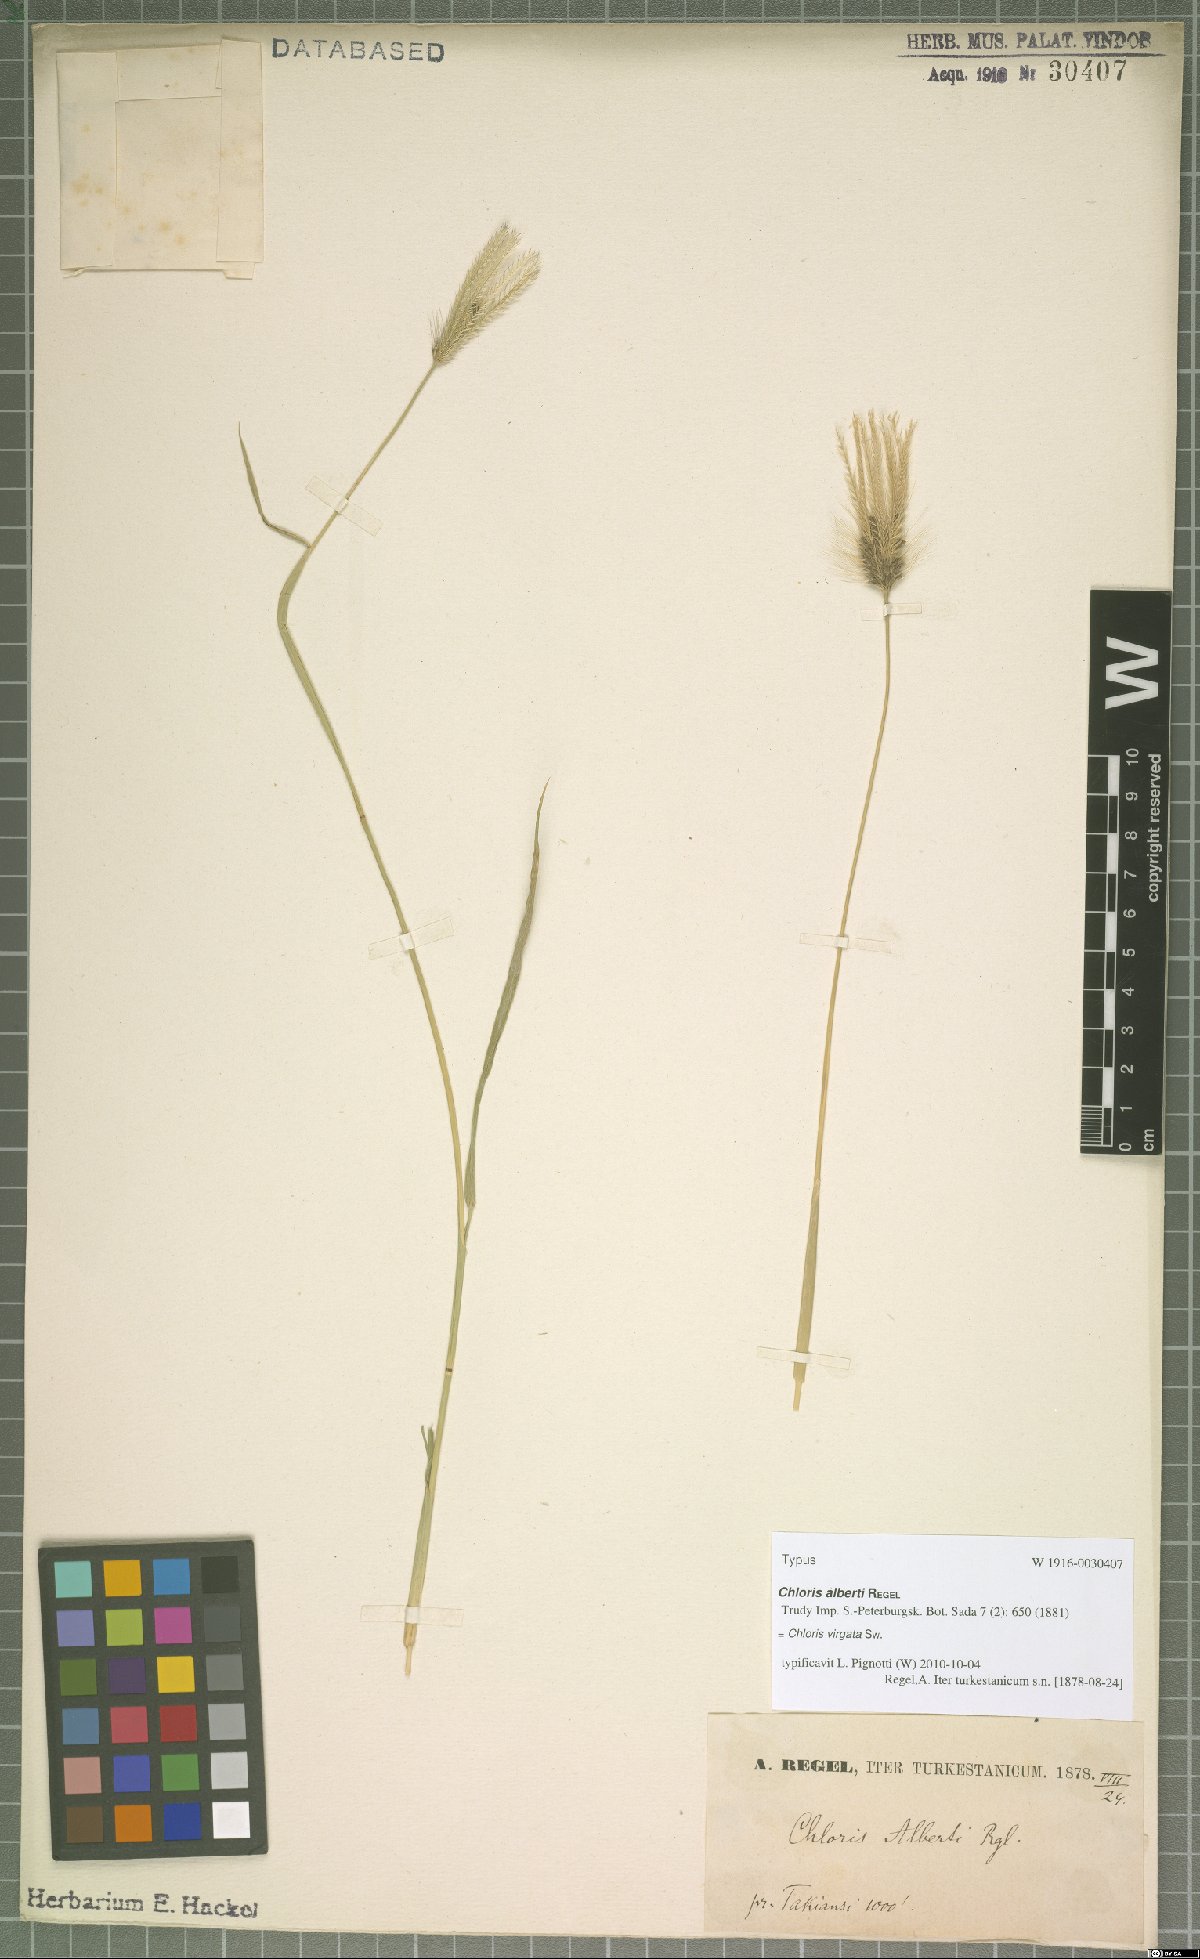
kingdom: Plantae
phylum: Tracheophyta
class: Liliopsida
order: Poales
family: Poaceae
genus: Chloris
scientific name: Chloris virgata
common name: Feathery rhodes-grass
